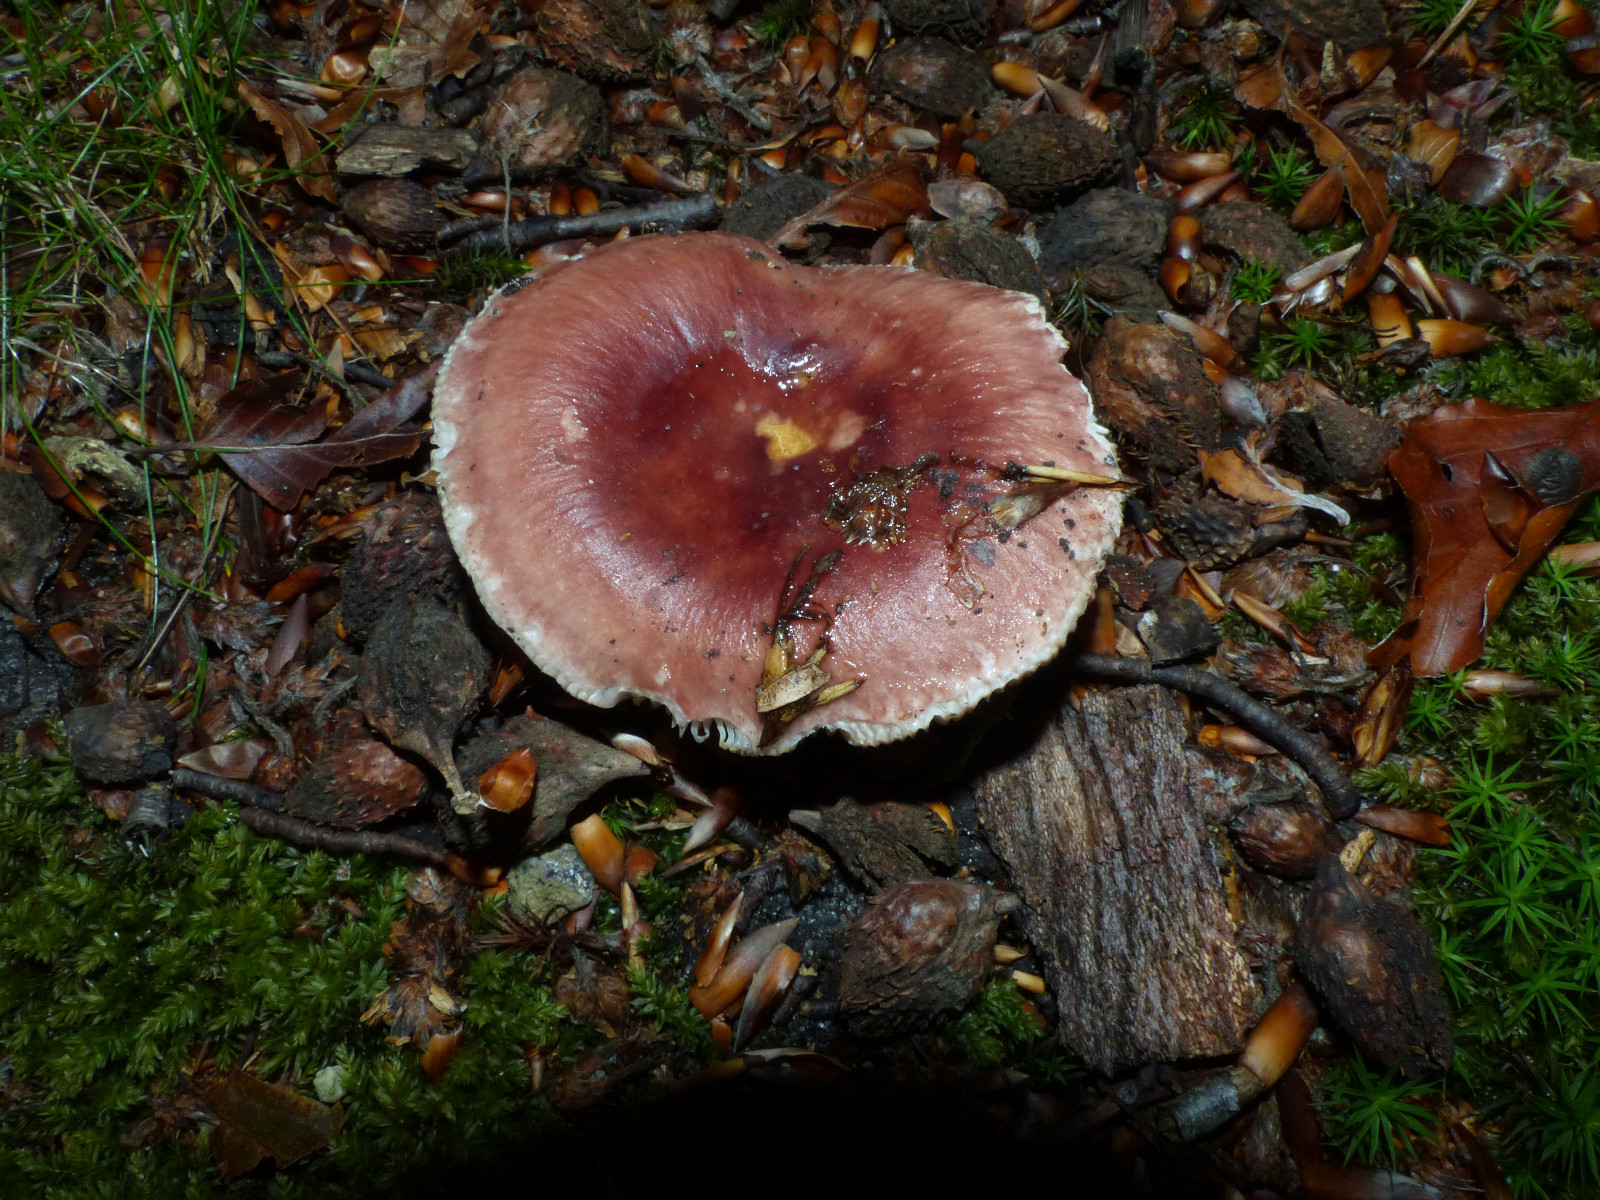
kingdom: Fungi
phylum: Basidiomycota
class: Agaricomycetes
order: Russulales
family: Russulaceae
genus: Russula
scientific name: Russula vesca
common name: spiselig skørhat
